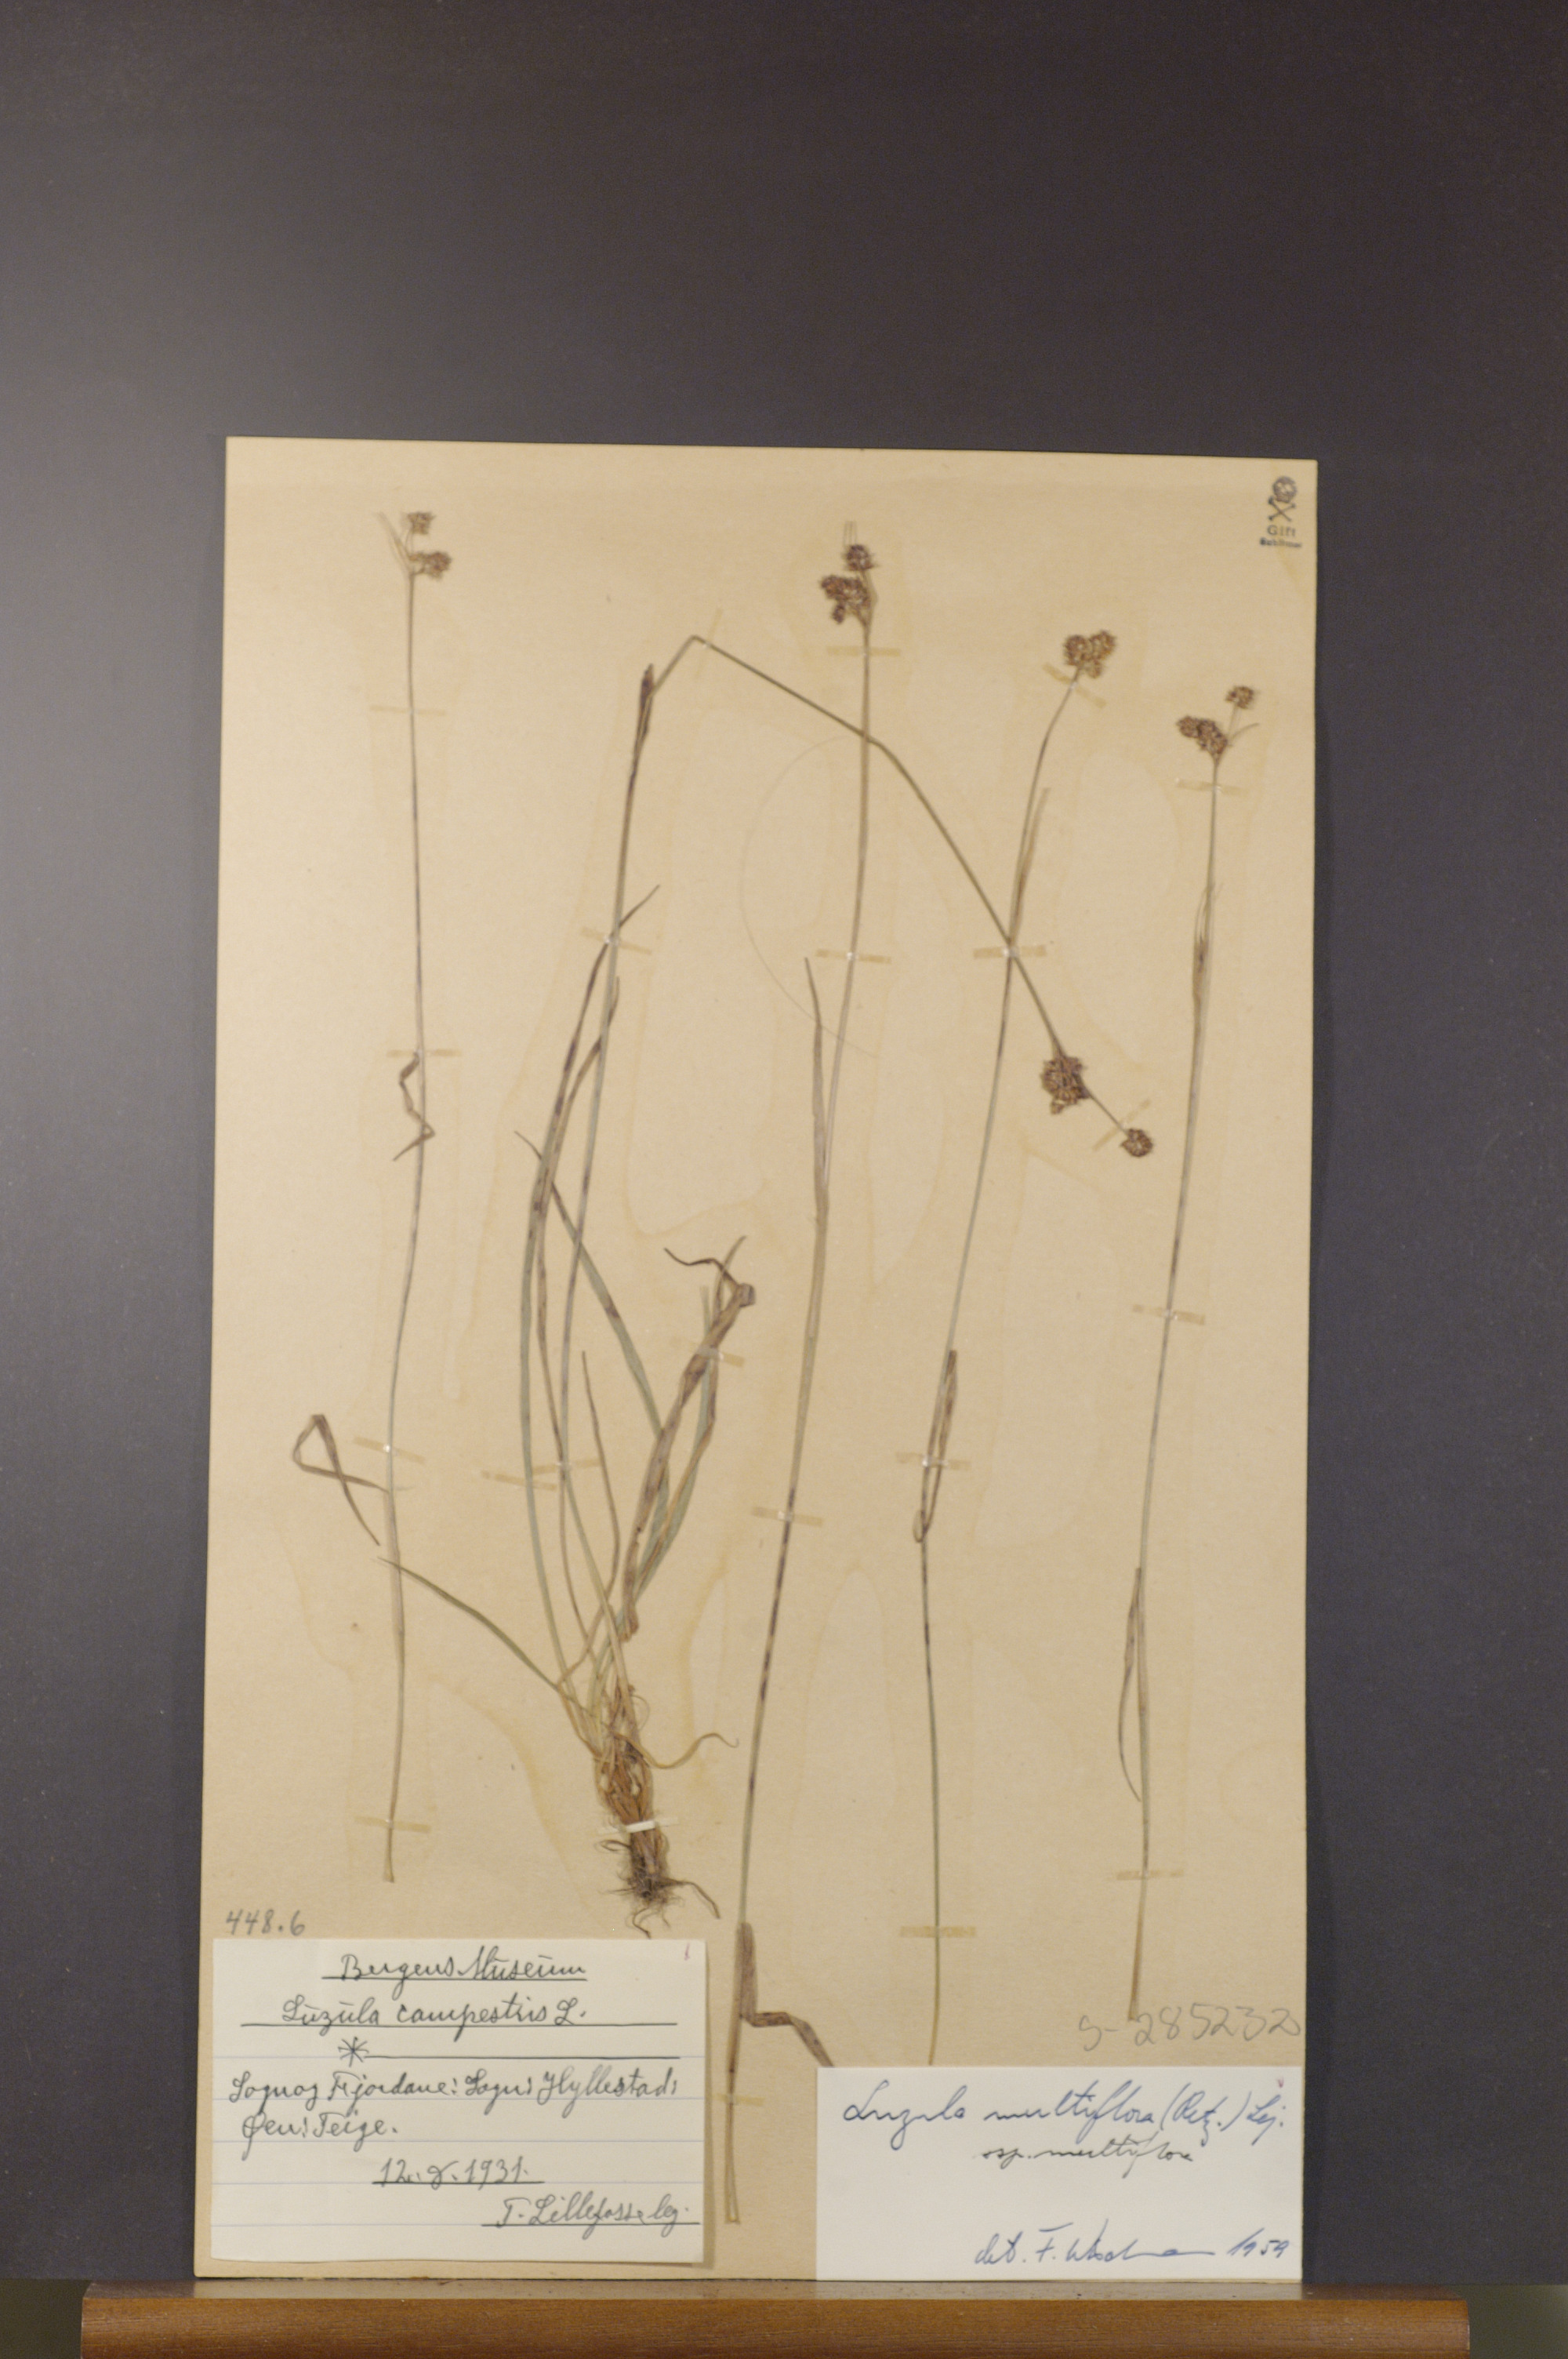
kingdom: Plantae
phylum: Tracheophyta
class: Liliopsida
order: Poales
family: Juncaceae
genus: Luzula
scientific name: Luzula multiflora
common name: Heath wood-rush
